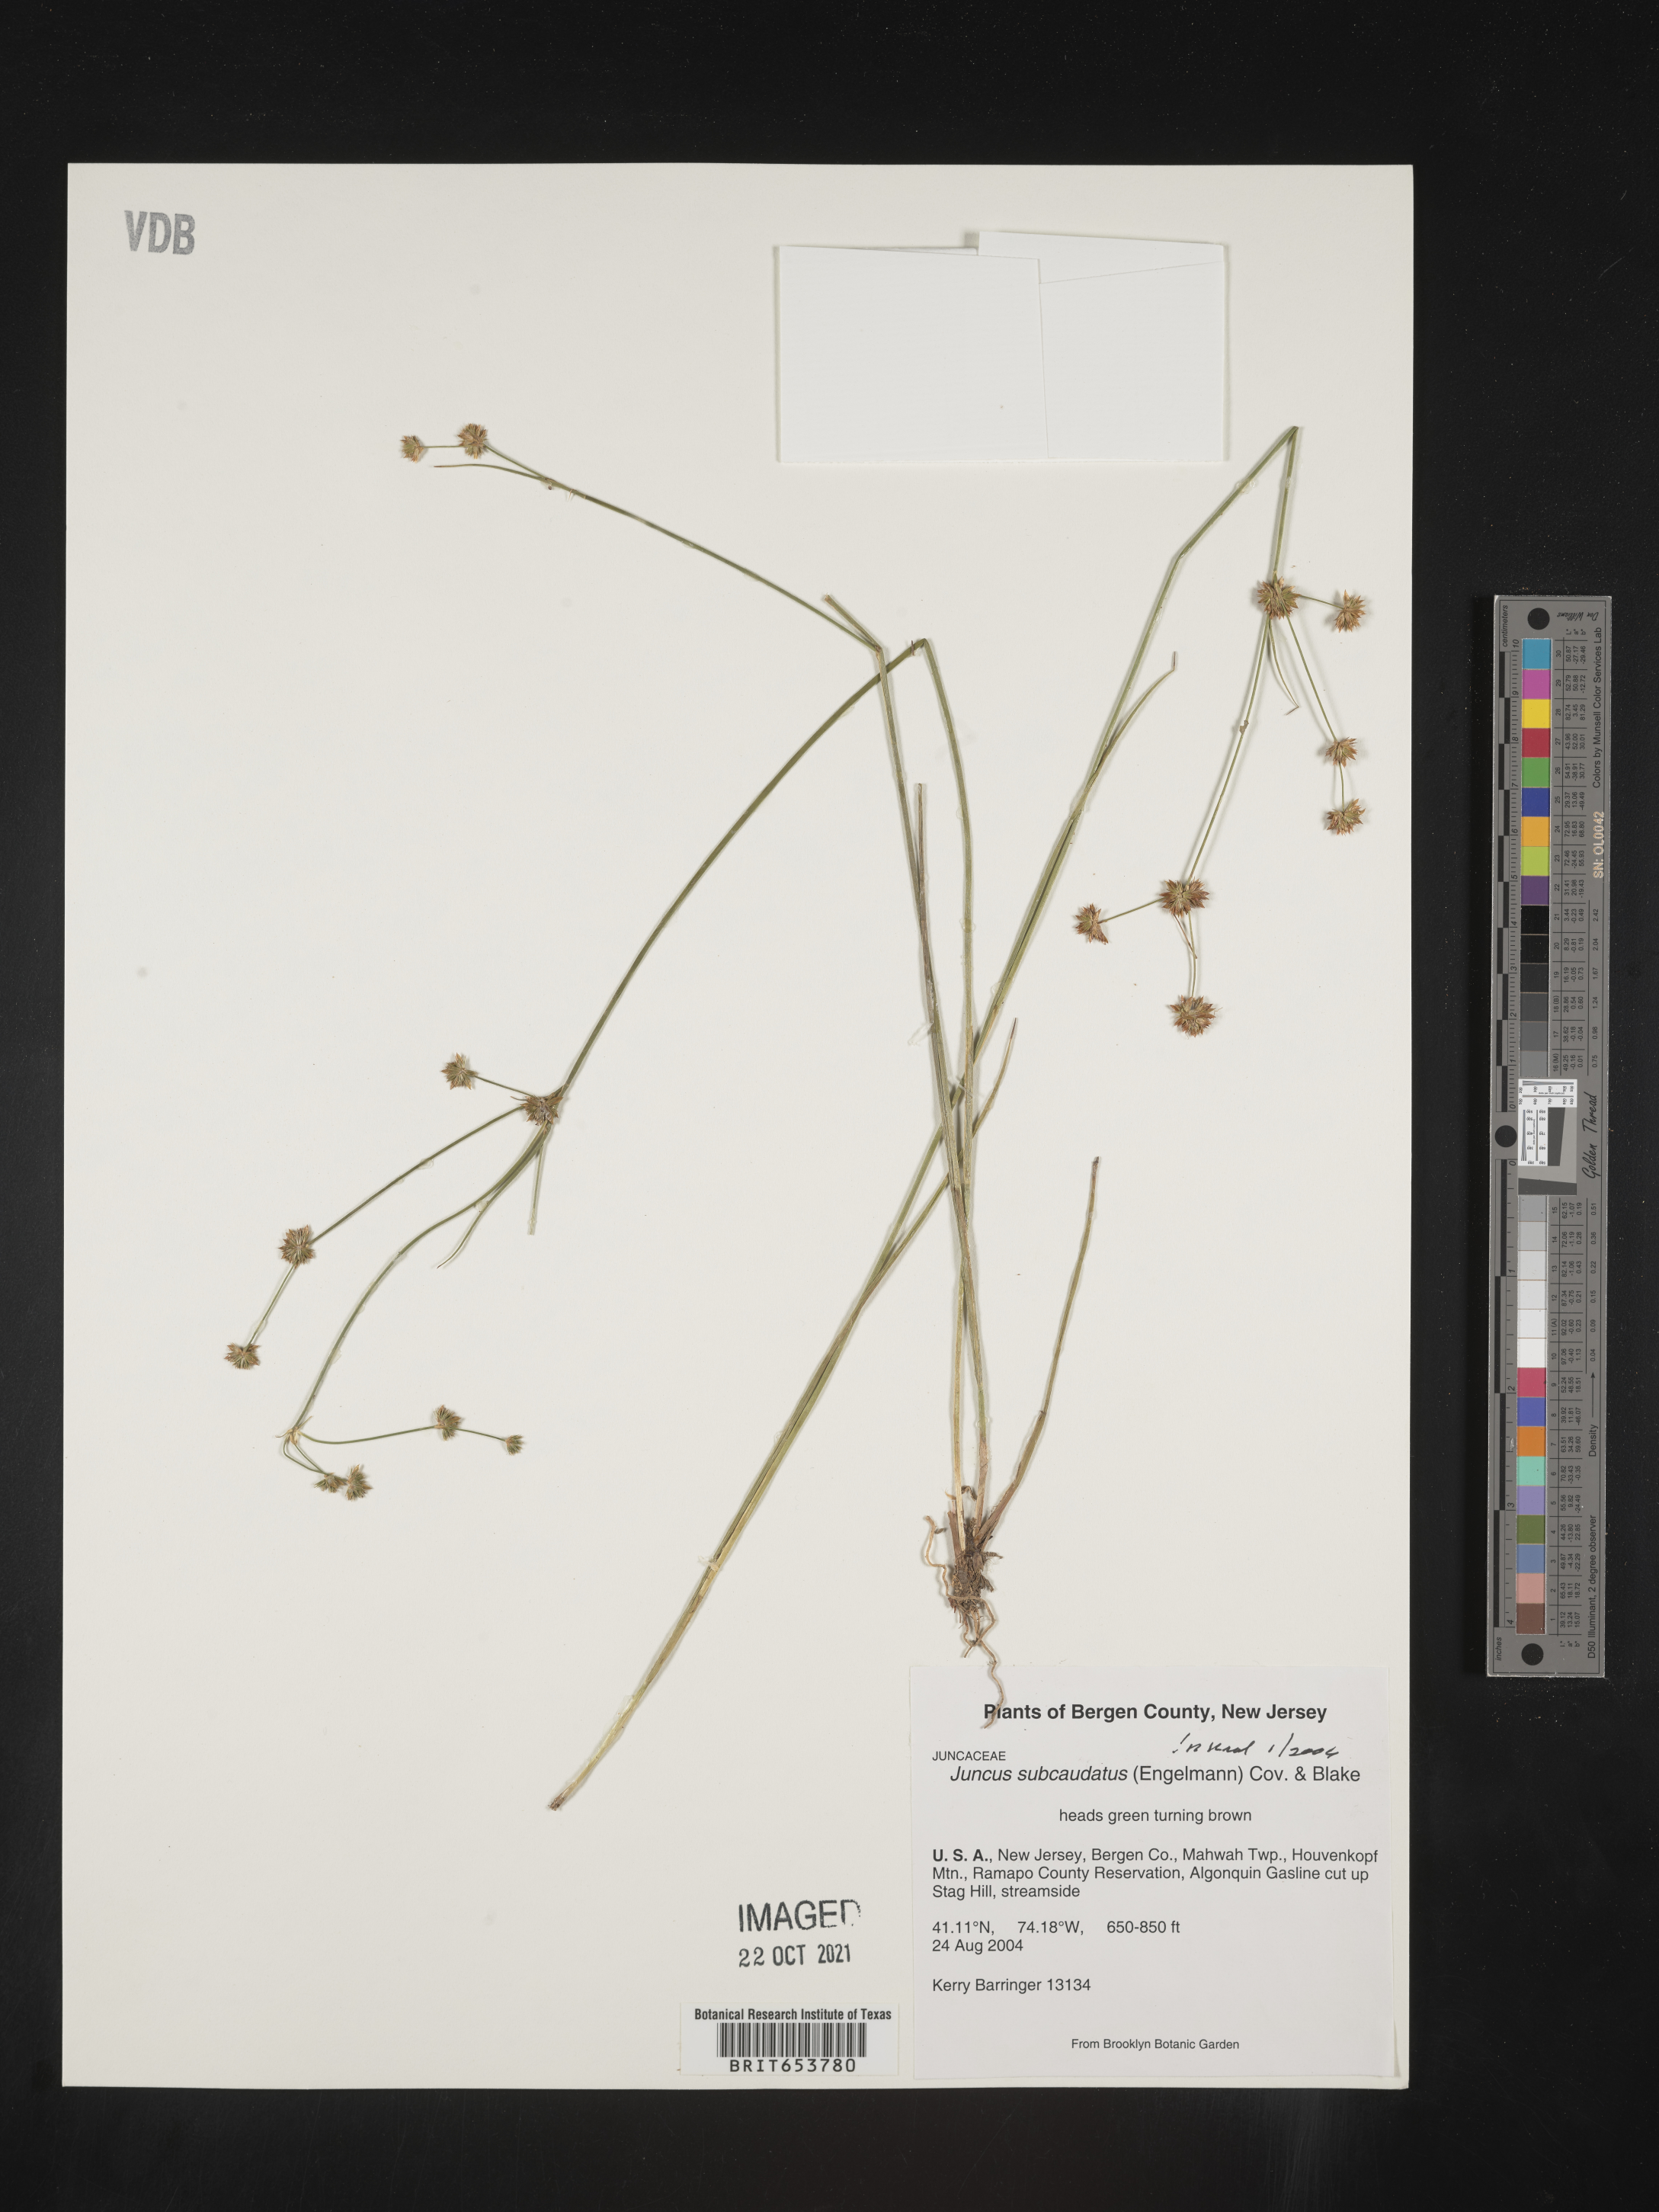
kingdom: Plantae
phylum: Tracheophyta
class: Liliopsida
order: Poales
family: Juncaceae
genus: Juncus
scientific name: Juncus subcaudatus
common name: Engelmann's rush
